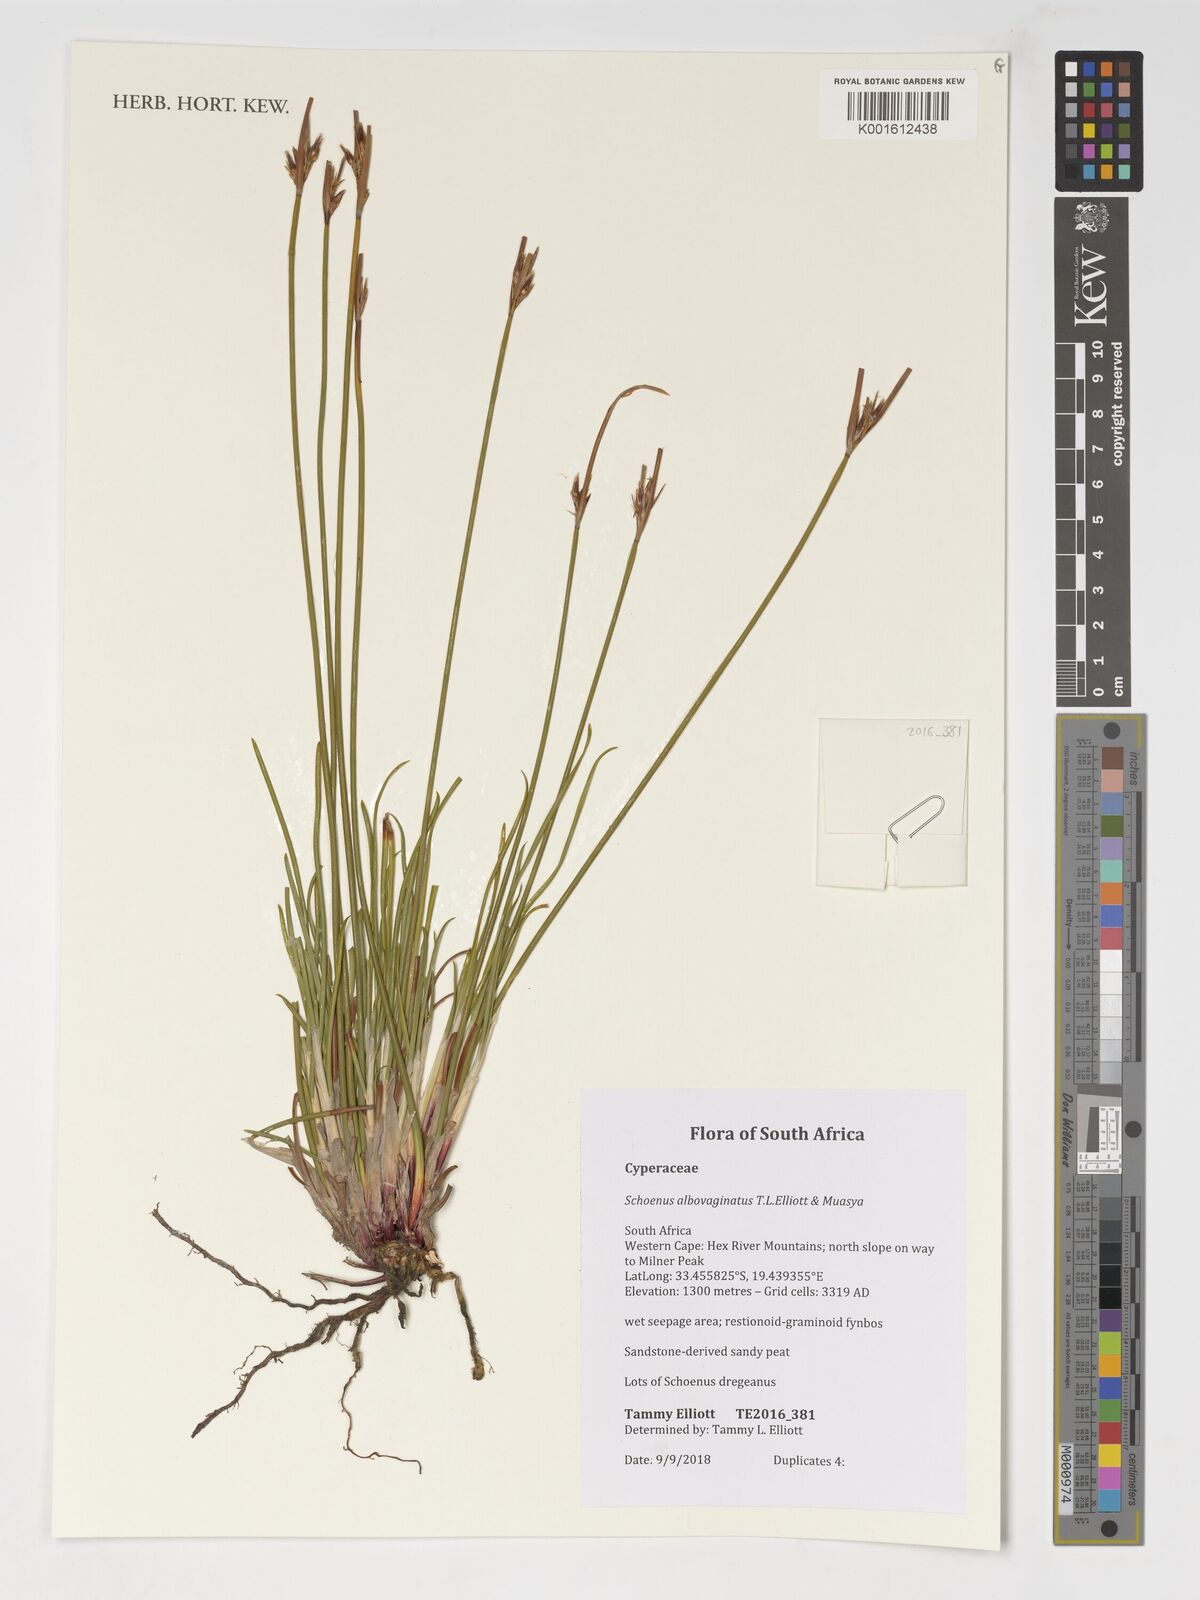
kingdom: Plantae
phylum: Tracheophyta
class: Liliopsida
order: Poales
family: Cyperaceae
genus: Schoenus
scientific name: Schoenus albovaginatus
